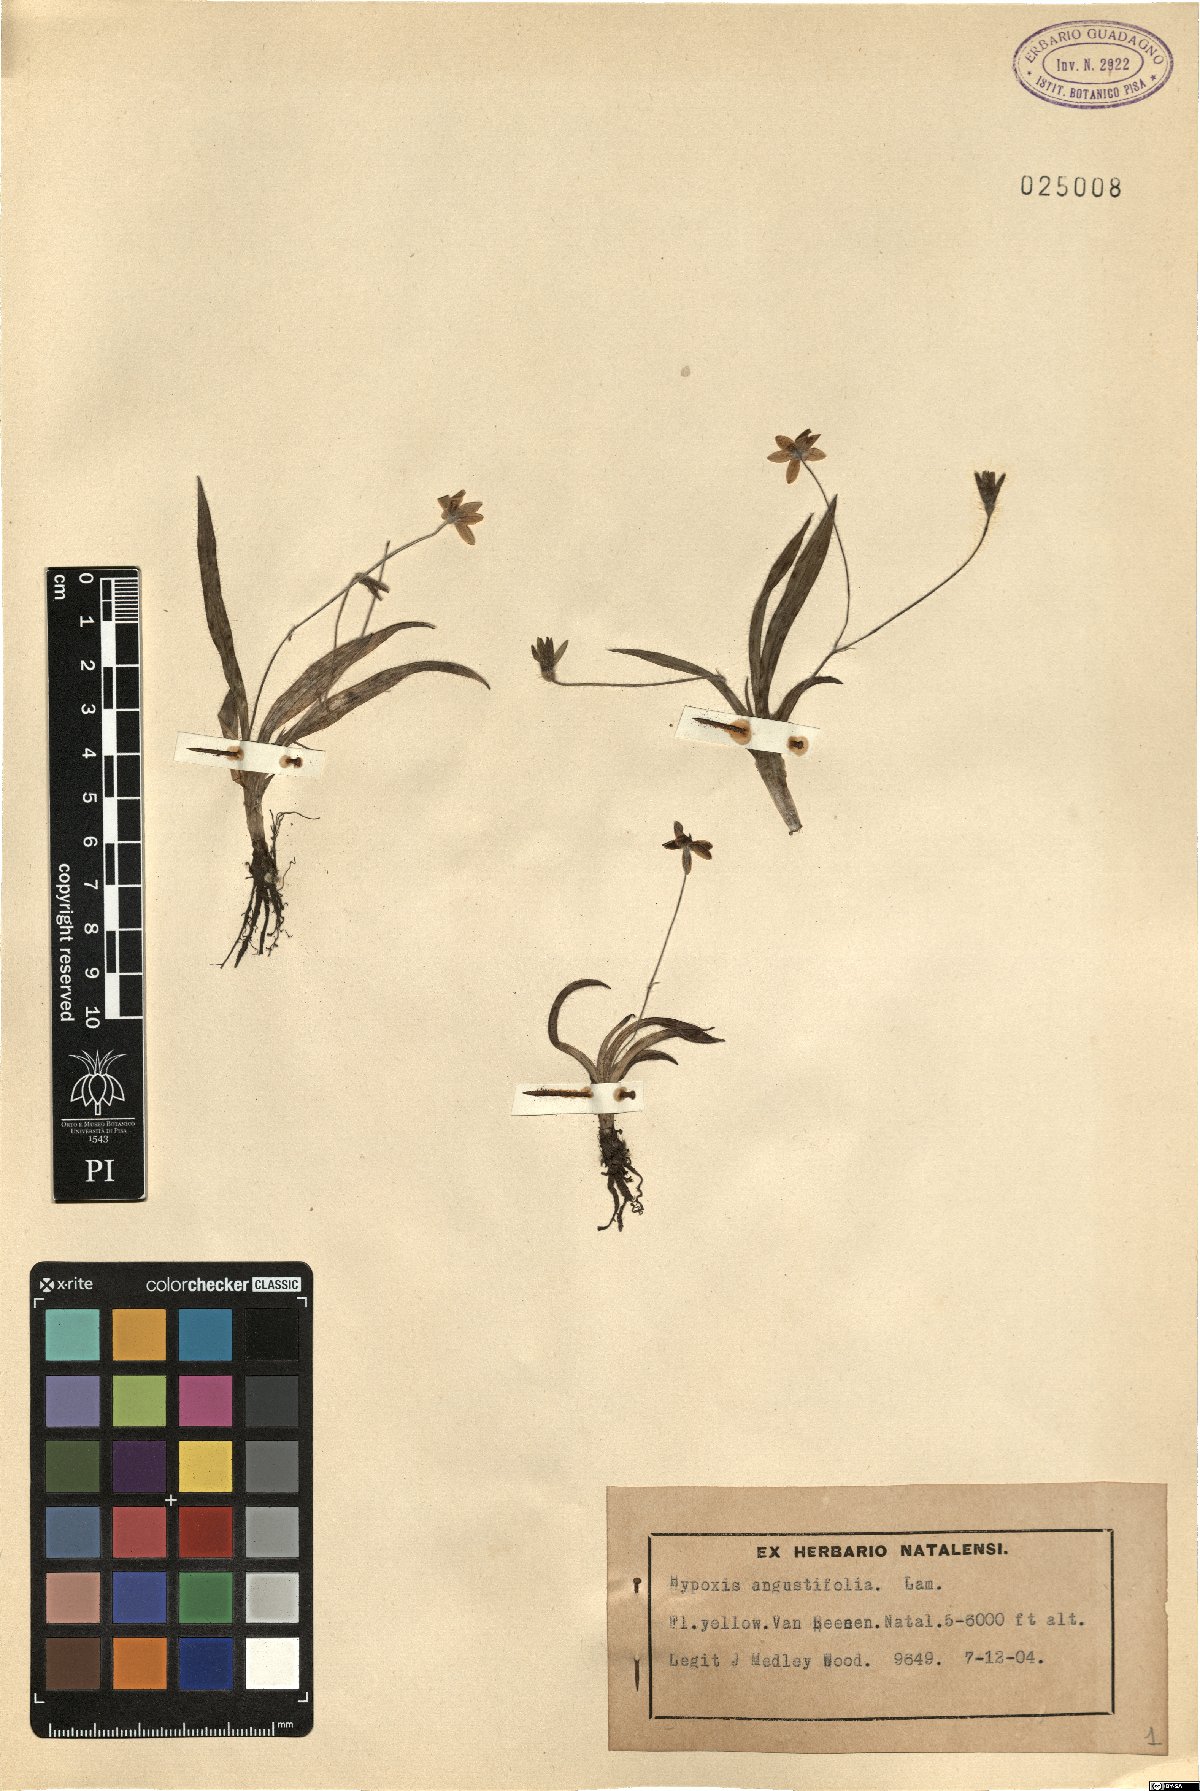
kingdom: Plantae
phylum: Tracheophyta
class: Liliopsida
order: Asparagales
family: Hypoxidaceae
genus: Hypoxis
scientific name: Hypoxis angustifolia
